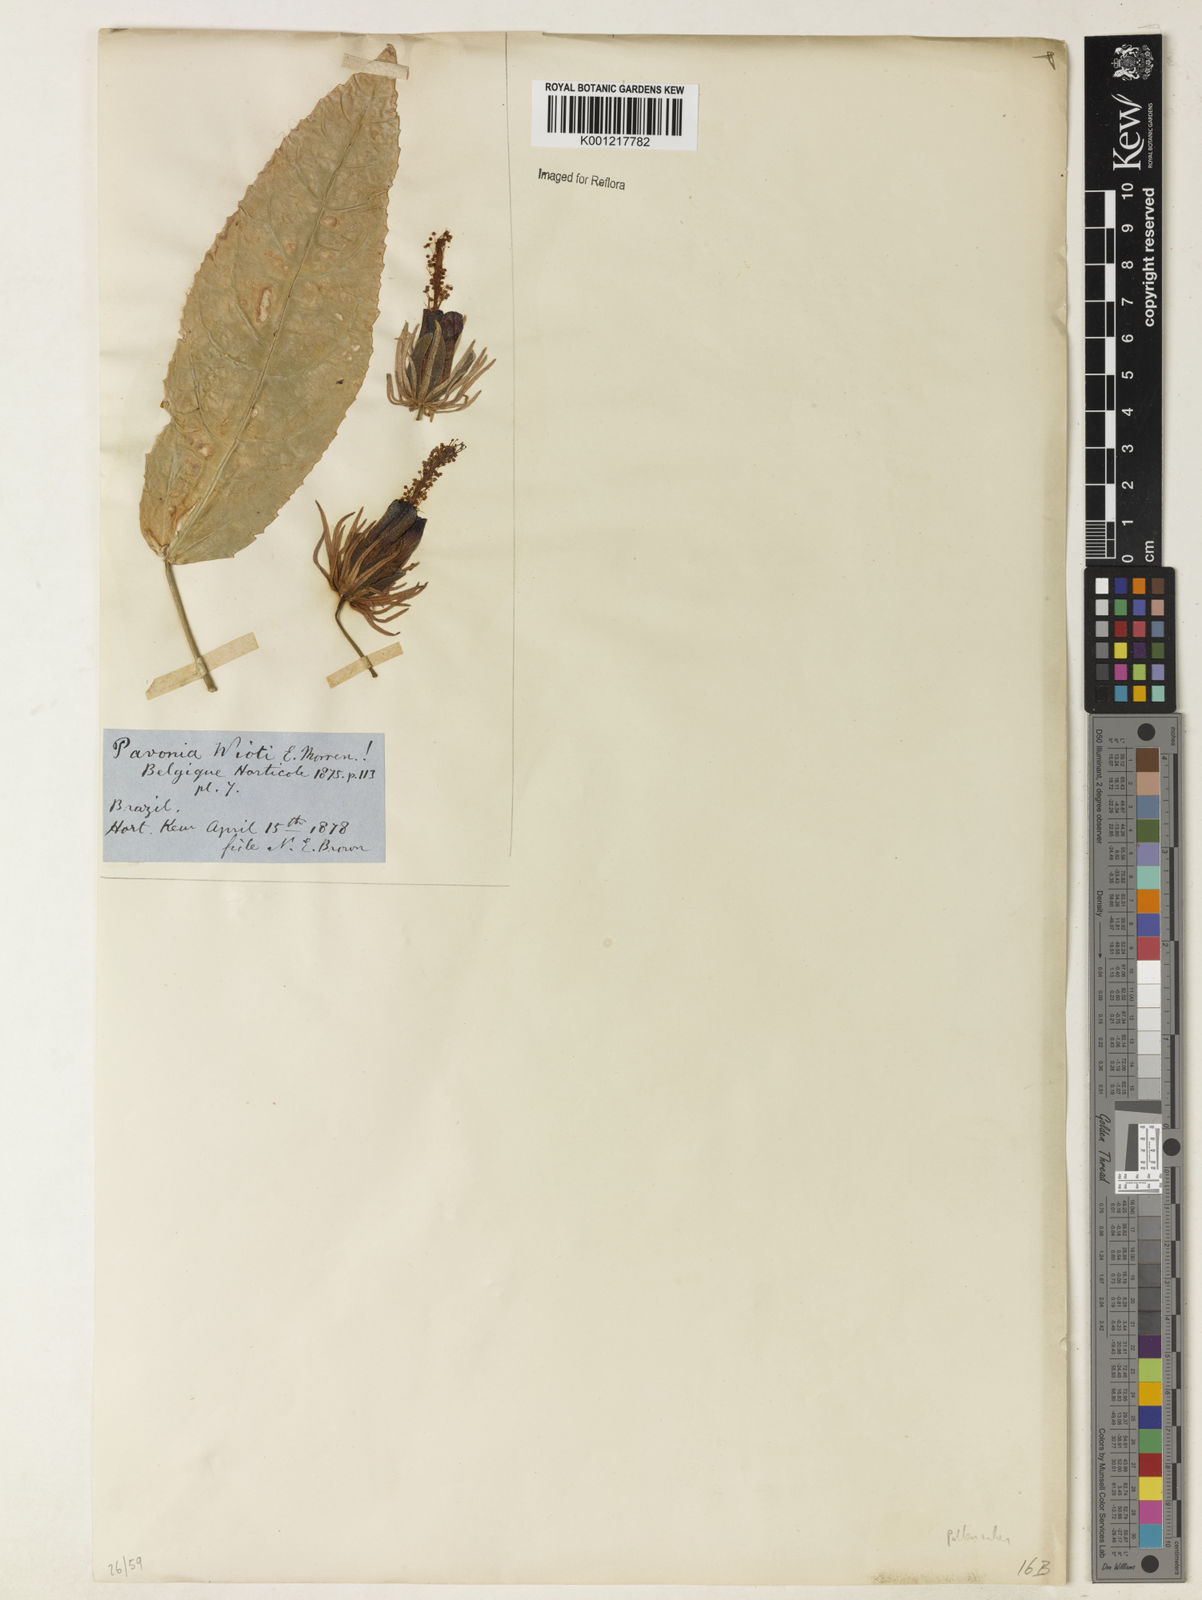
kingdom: Plantae
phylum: Tracheophyta
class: Magnoliopsida
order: Malvales
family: Malvaceae
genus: Pavonia
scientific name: Pavonia multiflora
